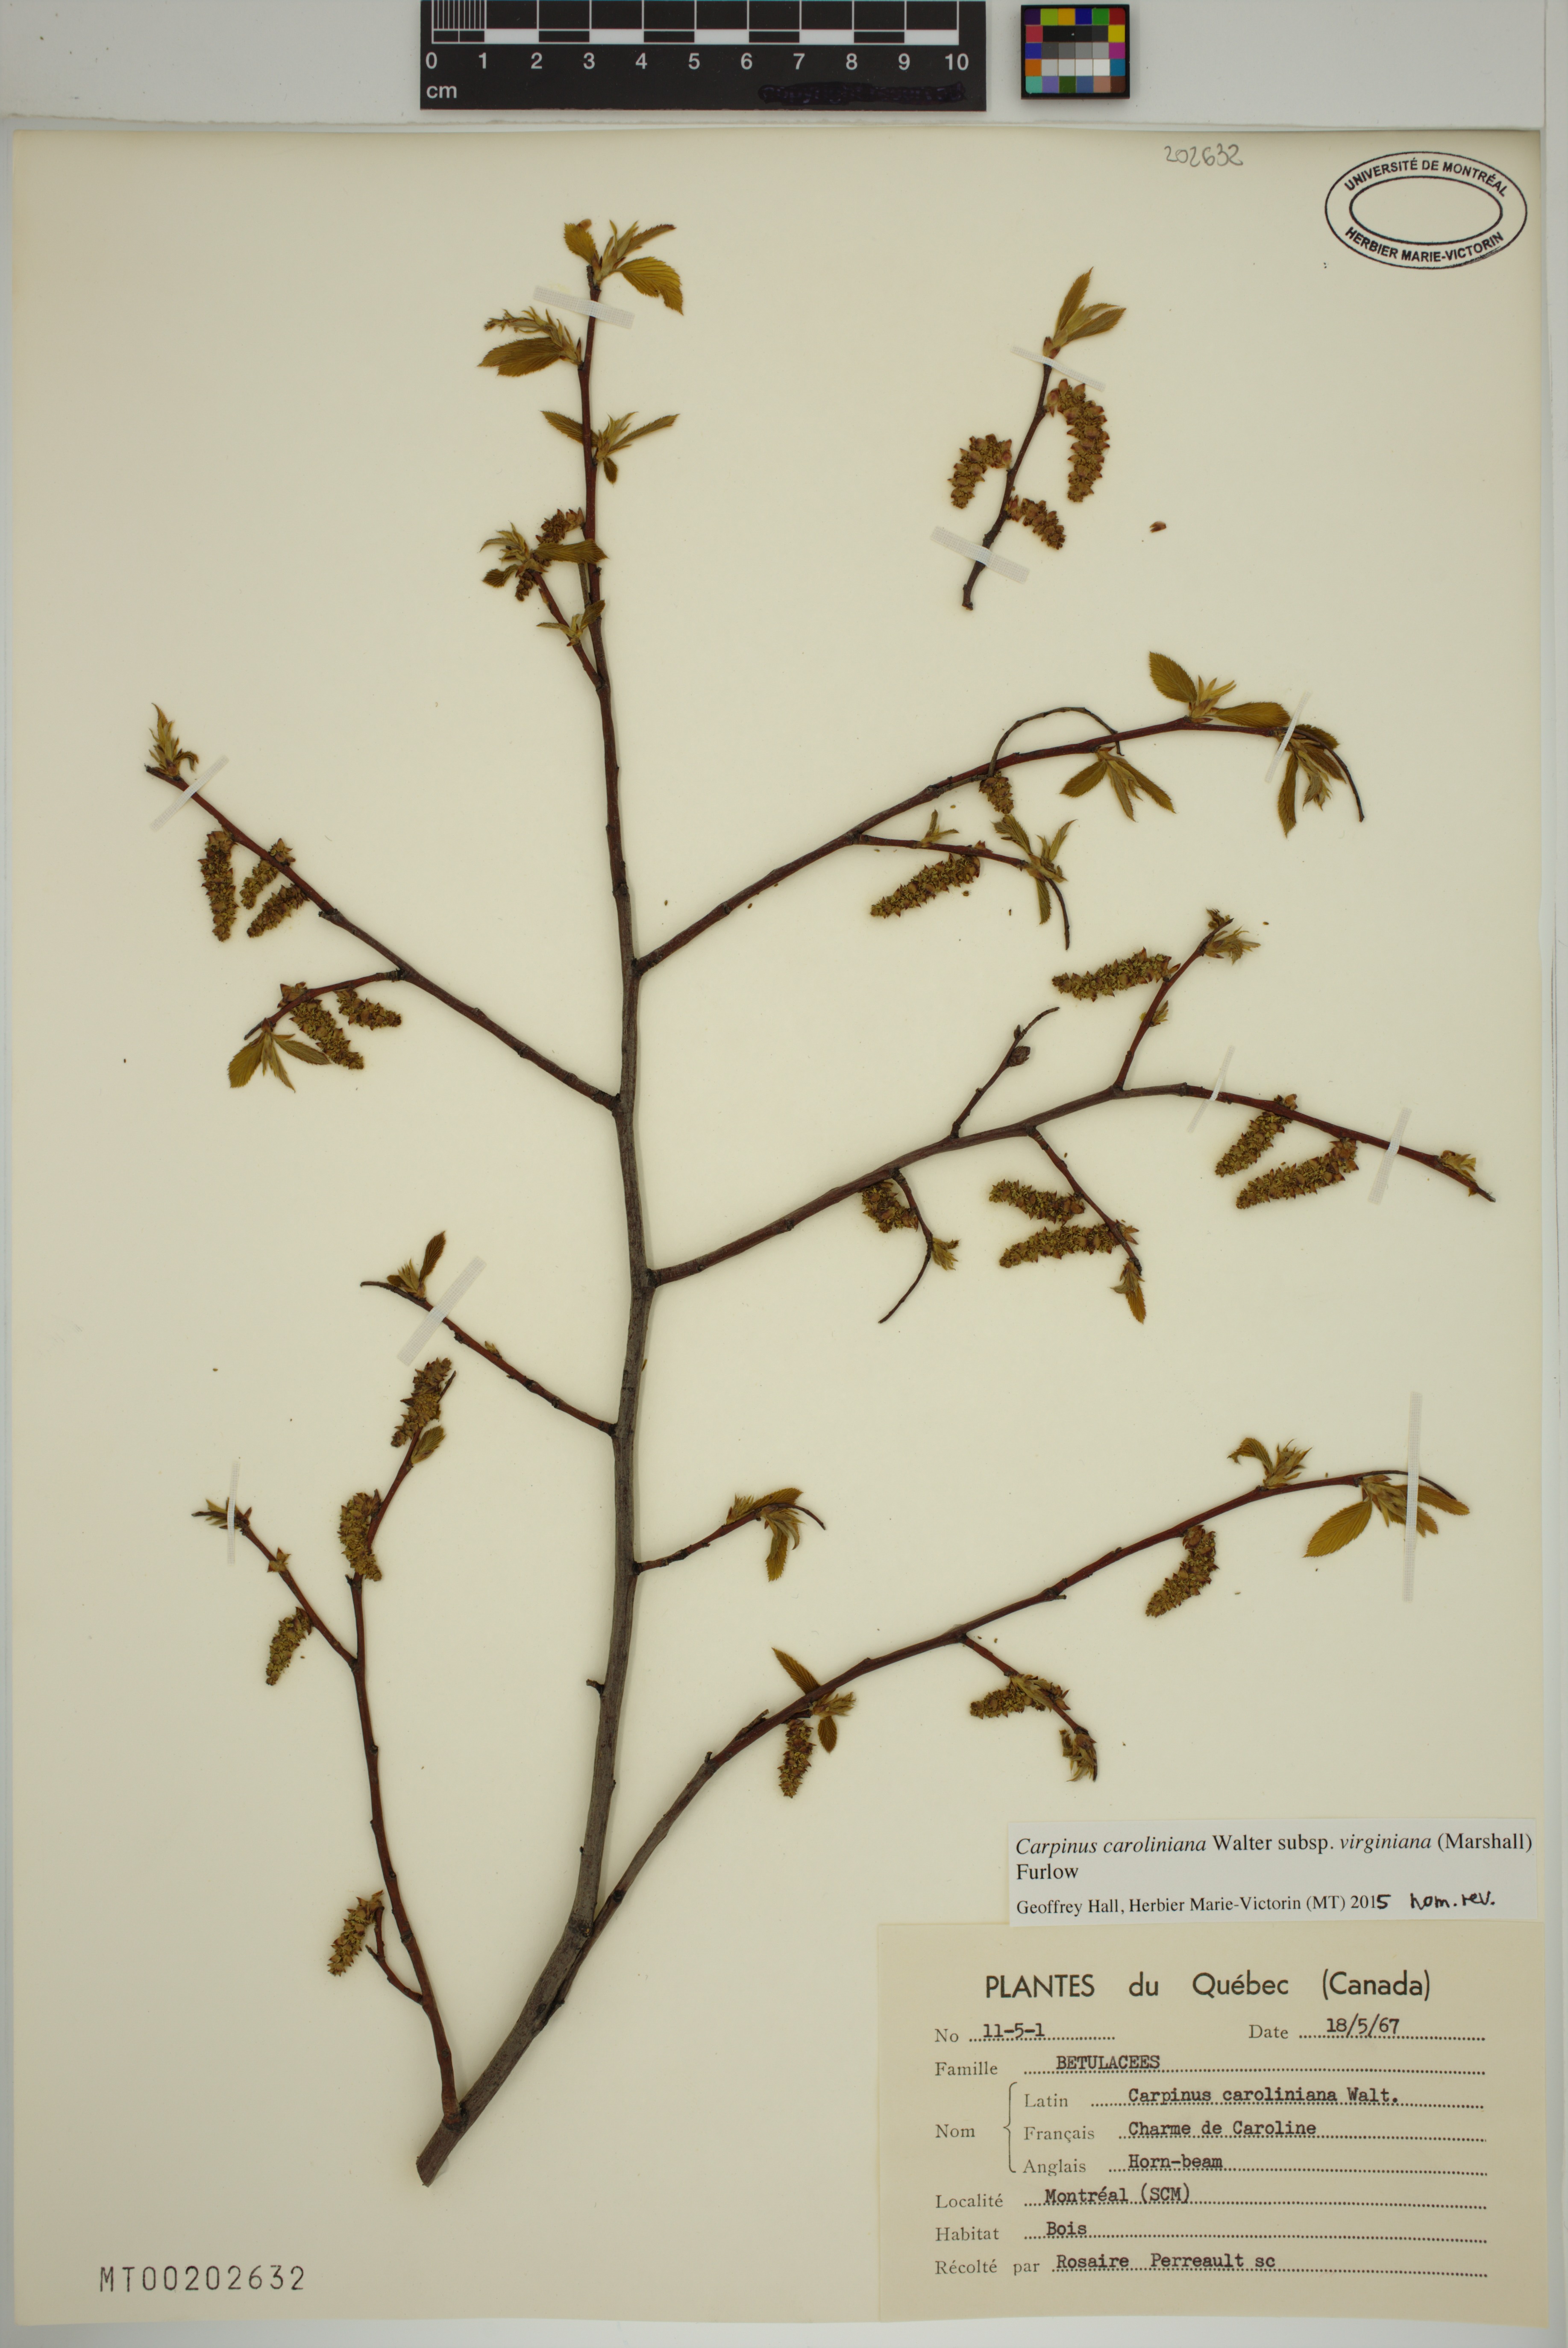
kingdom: Plantae
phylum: Tracheophyta
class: Magnoliopsida
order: Fagales
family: Betulaceae
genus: Carpinus
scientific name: Carpinus caroliniana
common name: American hornbeam
